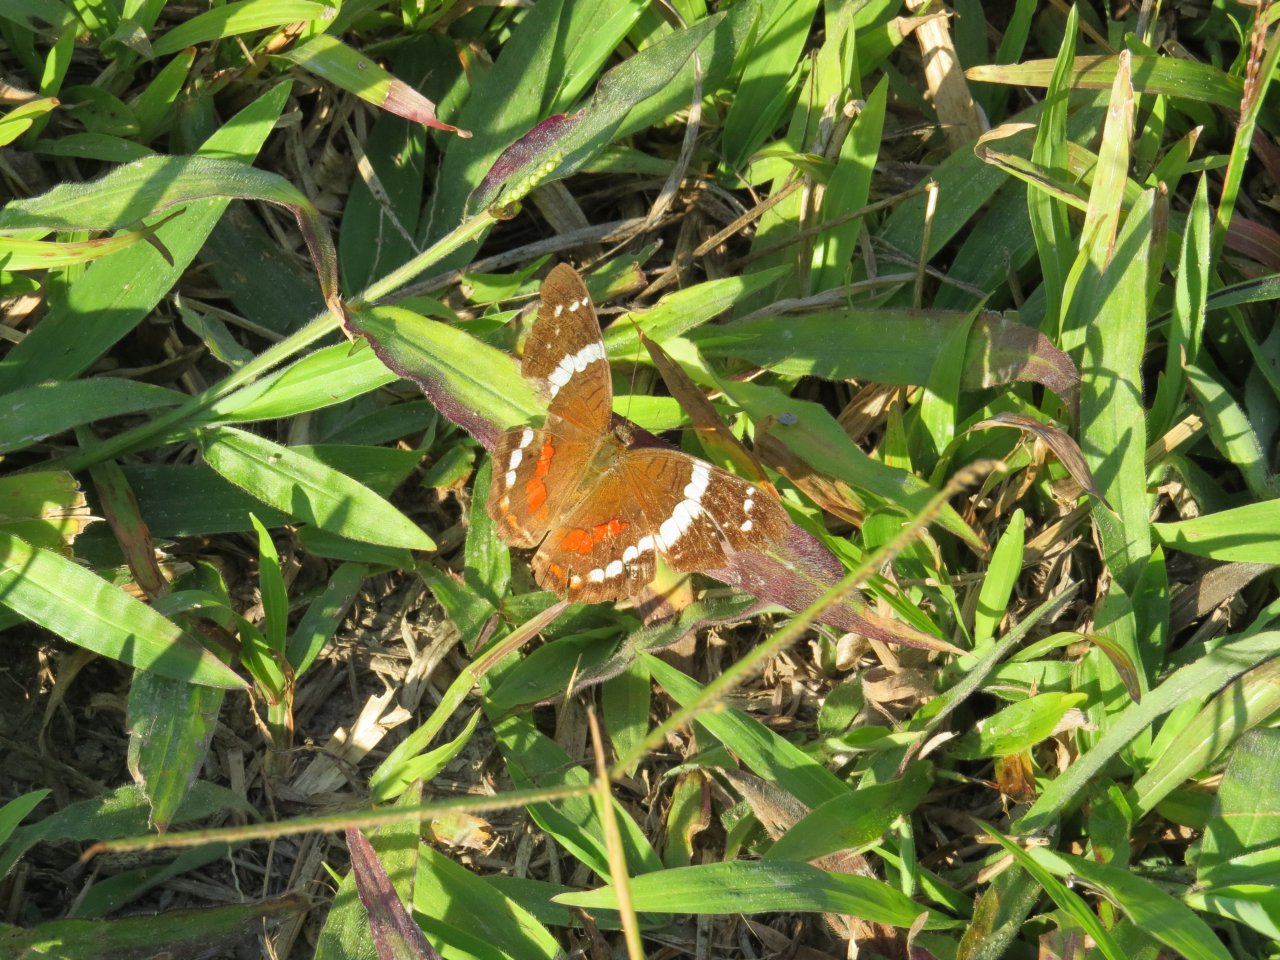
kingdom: Animalia
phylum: Arthropoda
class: Insecta
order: Lepidoptera
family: Nymphalidae
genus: Anartia
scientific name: Anartia fatima
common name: Banded Peacock
